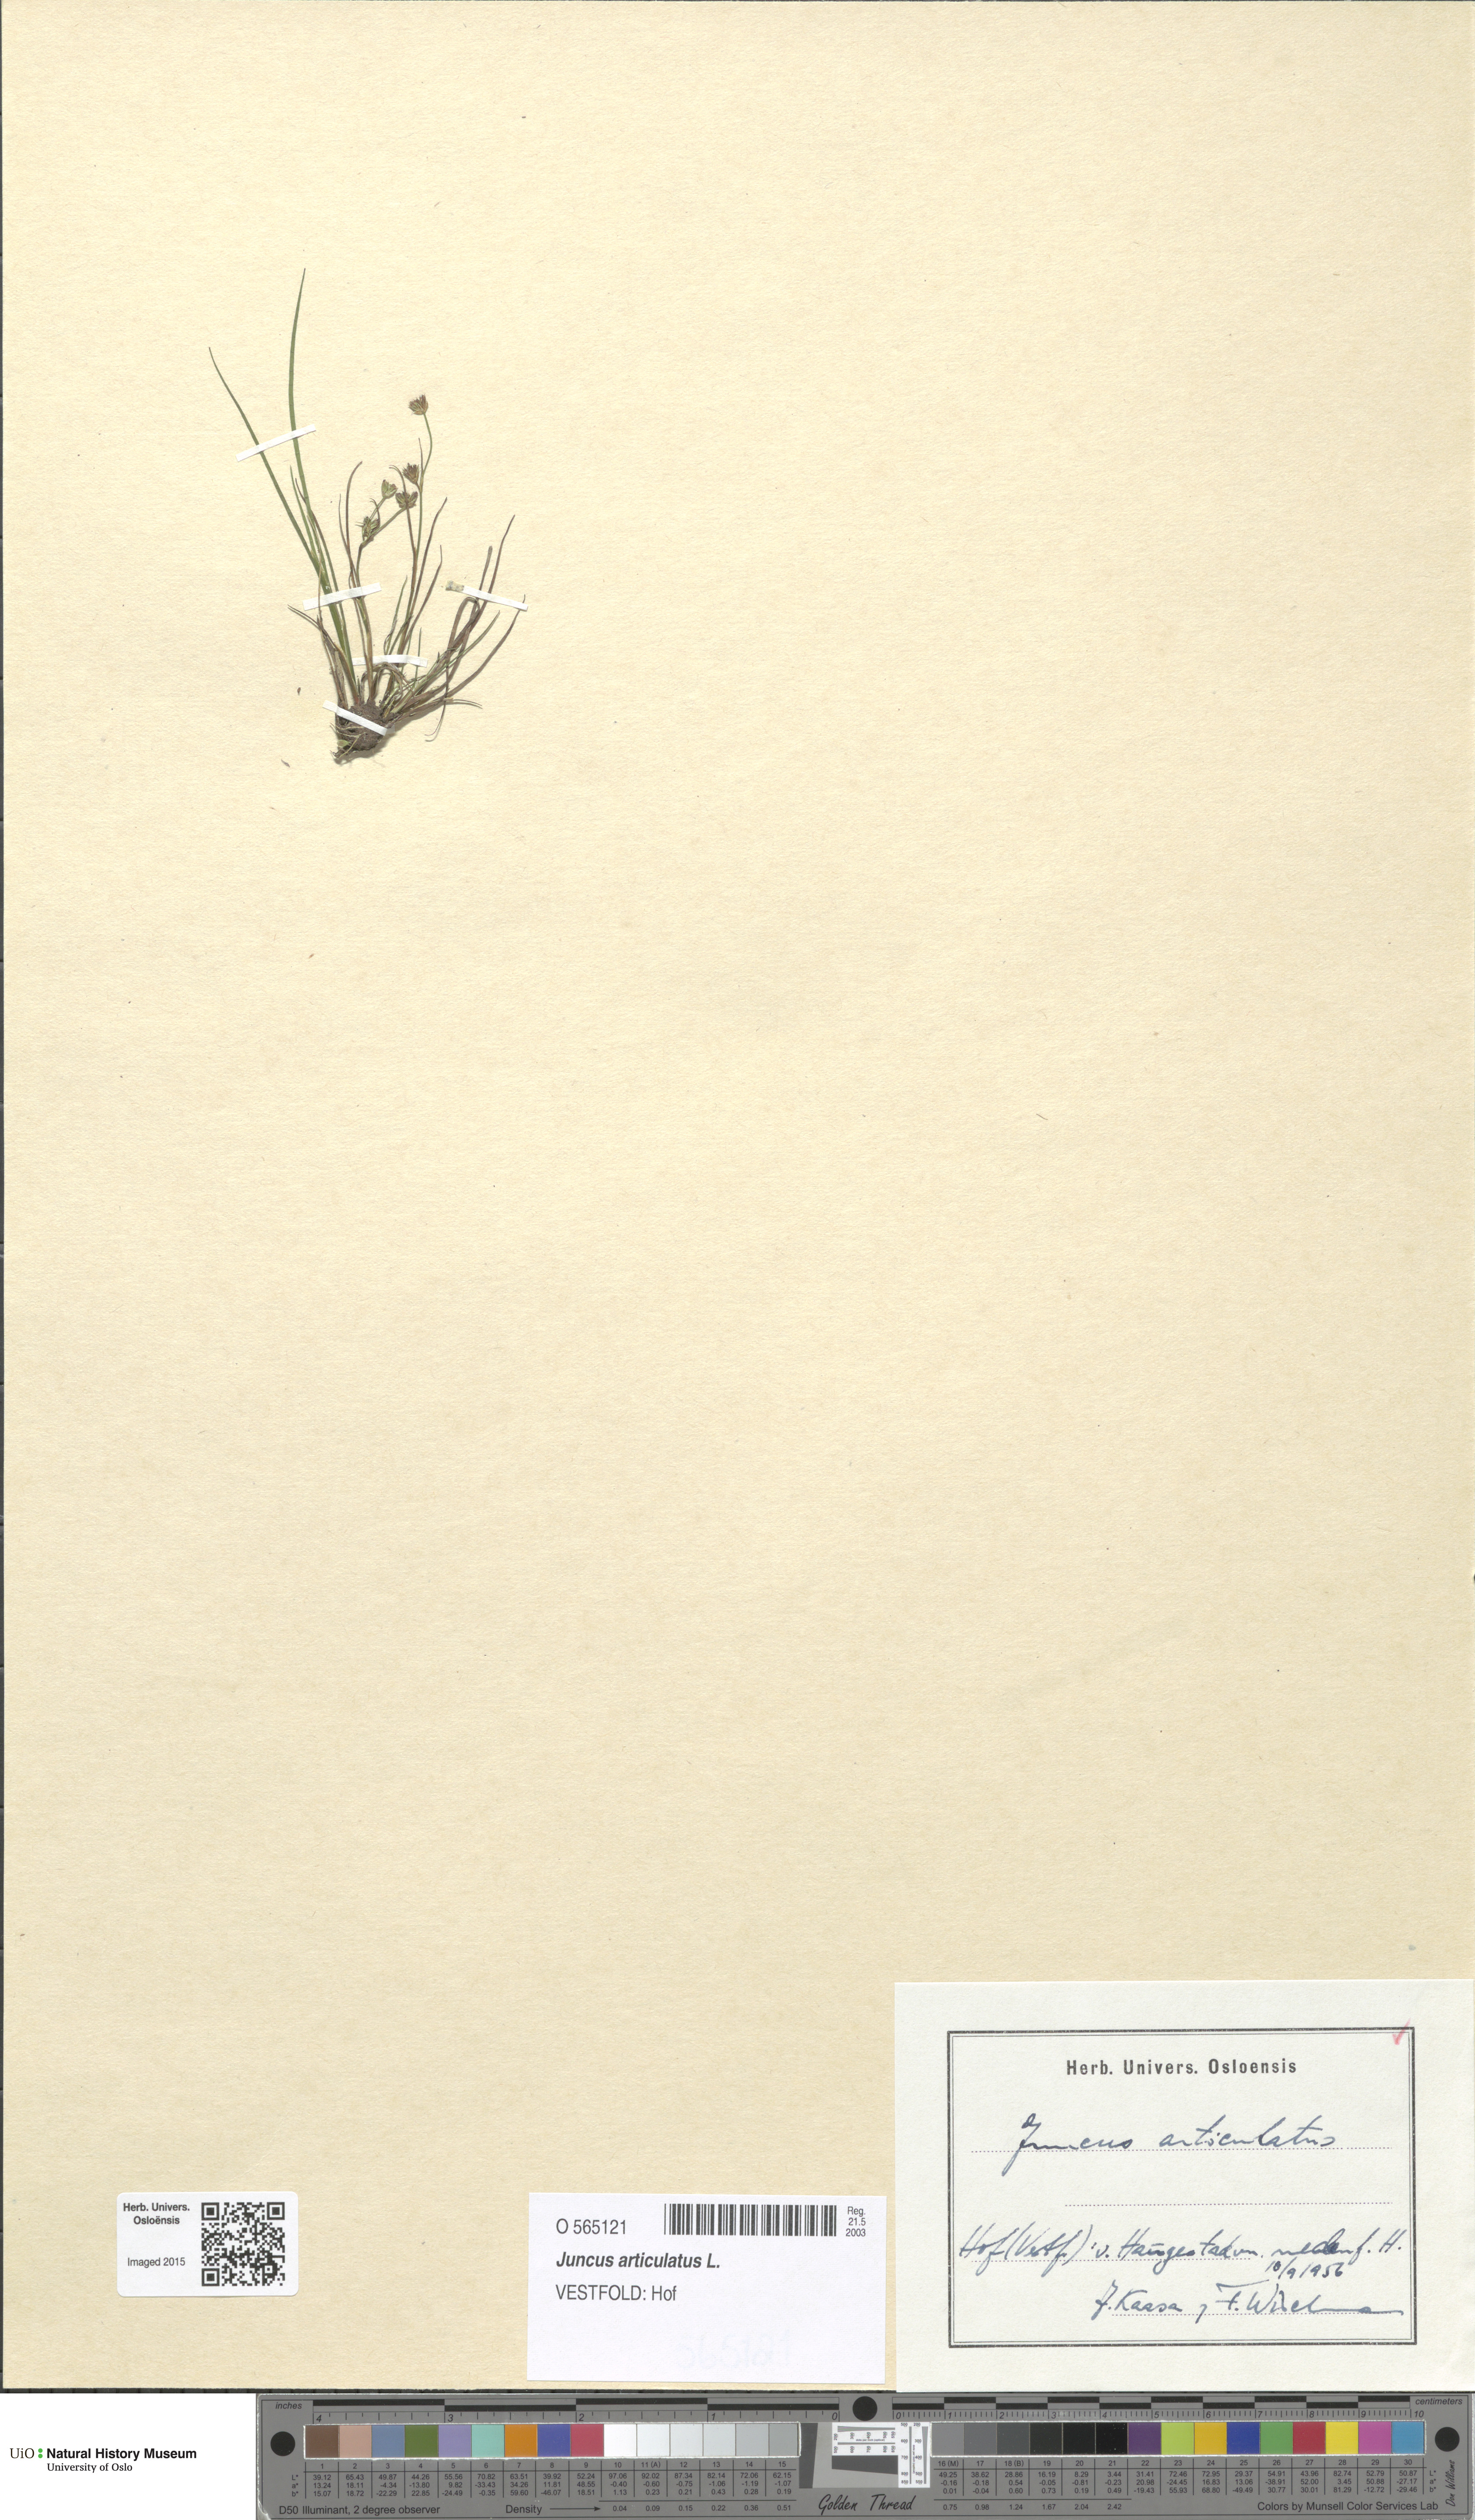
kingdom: Plantae
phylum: Tracheophyta
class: Liliopsida
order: Poales
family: Juncaceae
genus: Juncus
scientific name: Juncus articulatus
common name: Jointed rush
